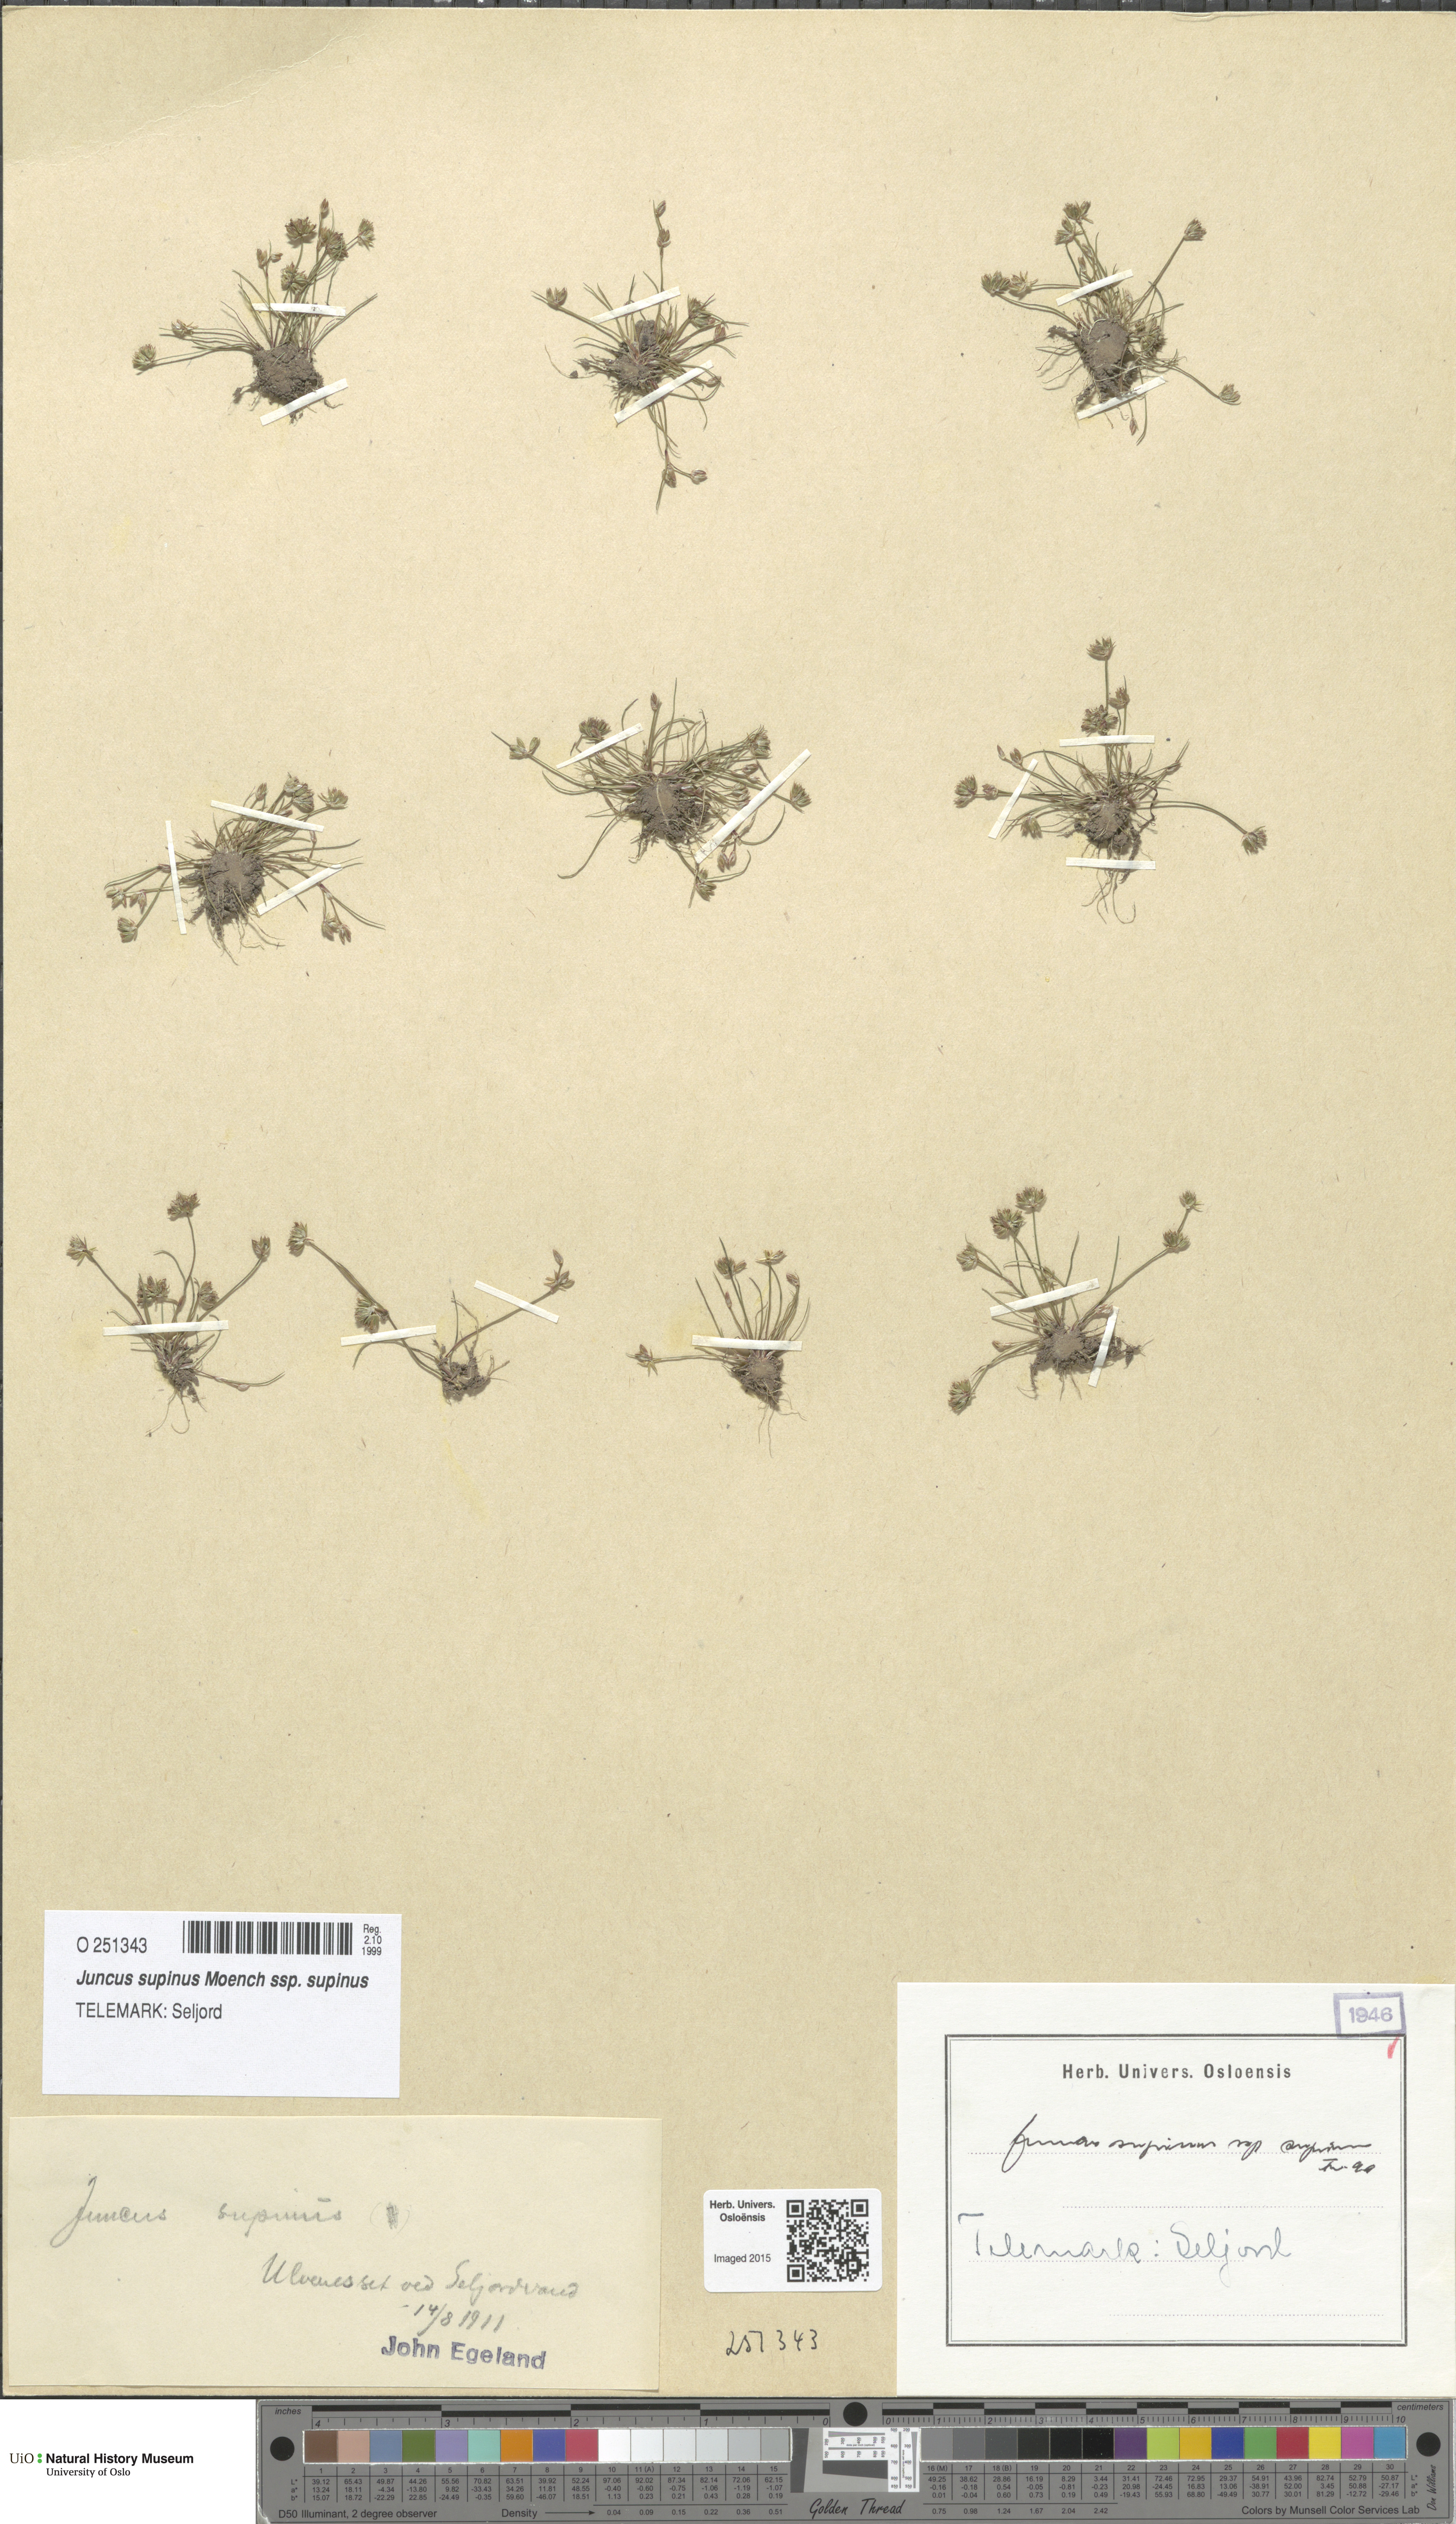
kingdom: Plantae
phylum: Tracheophyta
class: Liliopsida
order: Poales
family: Juncaceae
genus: Juncus
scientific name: Juncus bulbosus
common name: Bulbous rush
